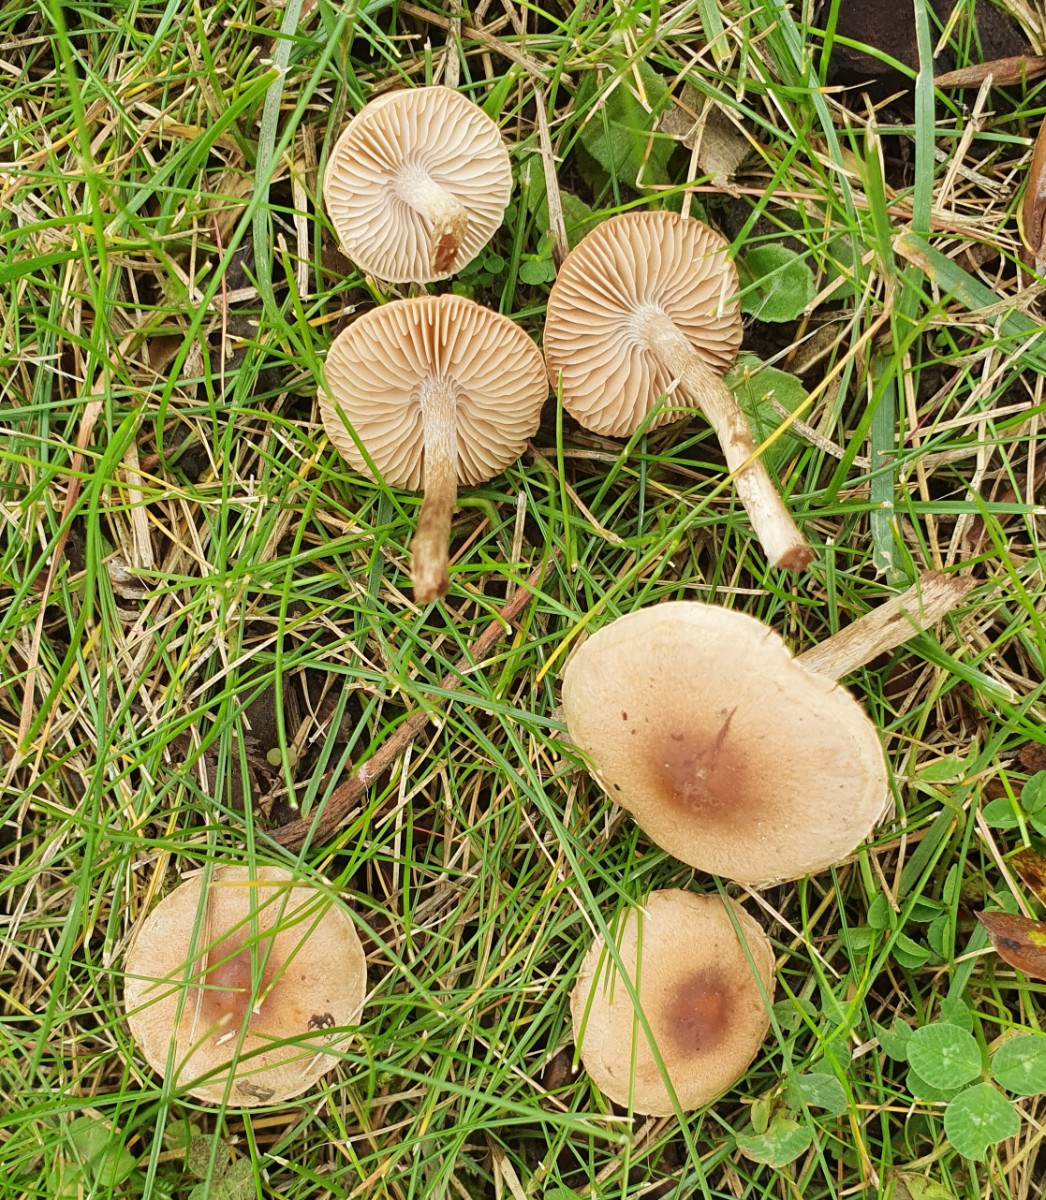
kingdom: Fungi
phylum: Basidiomycota
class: Agaricomycetes
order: Agaricales
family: Inocybaceae
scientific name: Inocybaceae
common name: trævlhatfamilien
